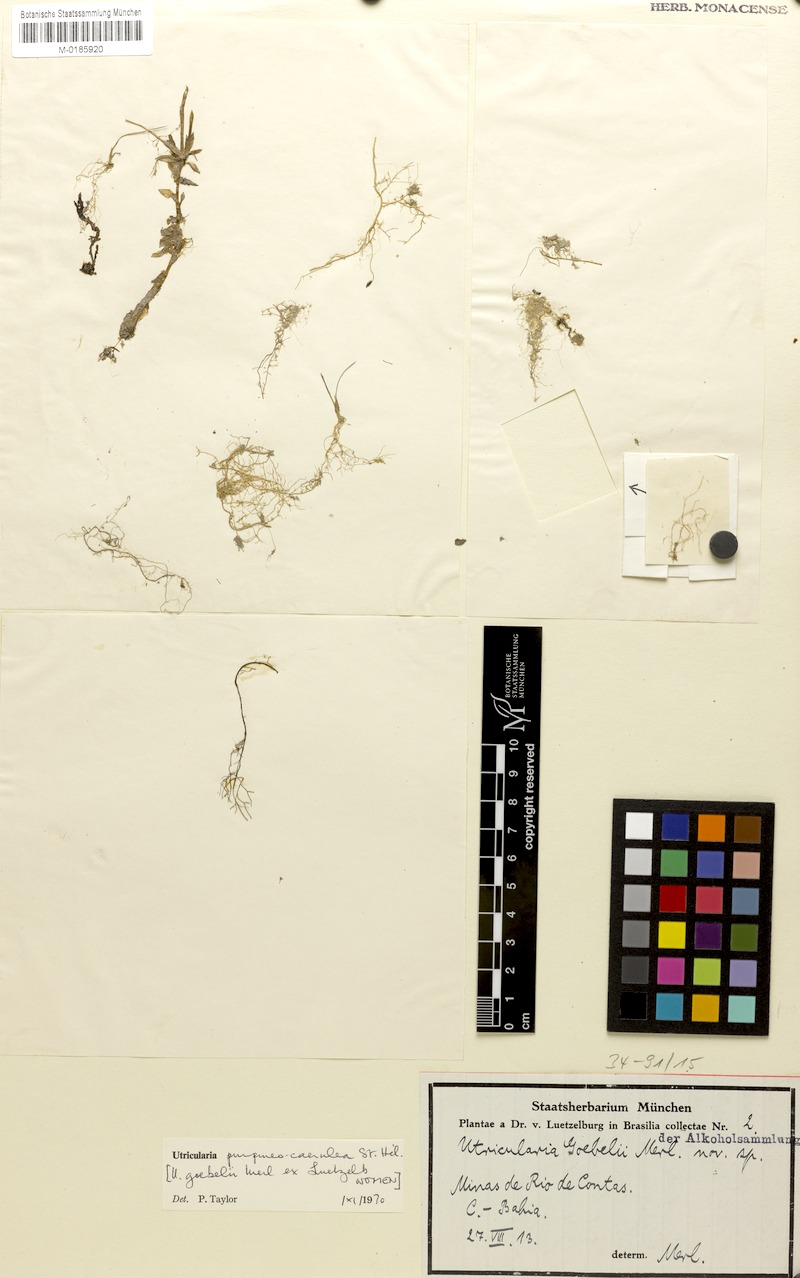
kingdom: Plantae
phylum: Tracheophyta
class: Magnoliopsida
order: Lamiales
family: Lentibulariaceae
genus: Utricularia
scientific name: Utricularia purpureocaerulea
